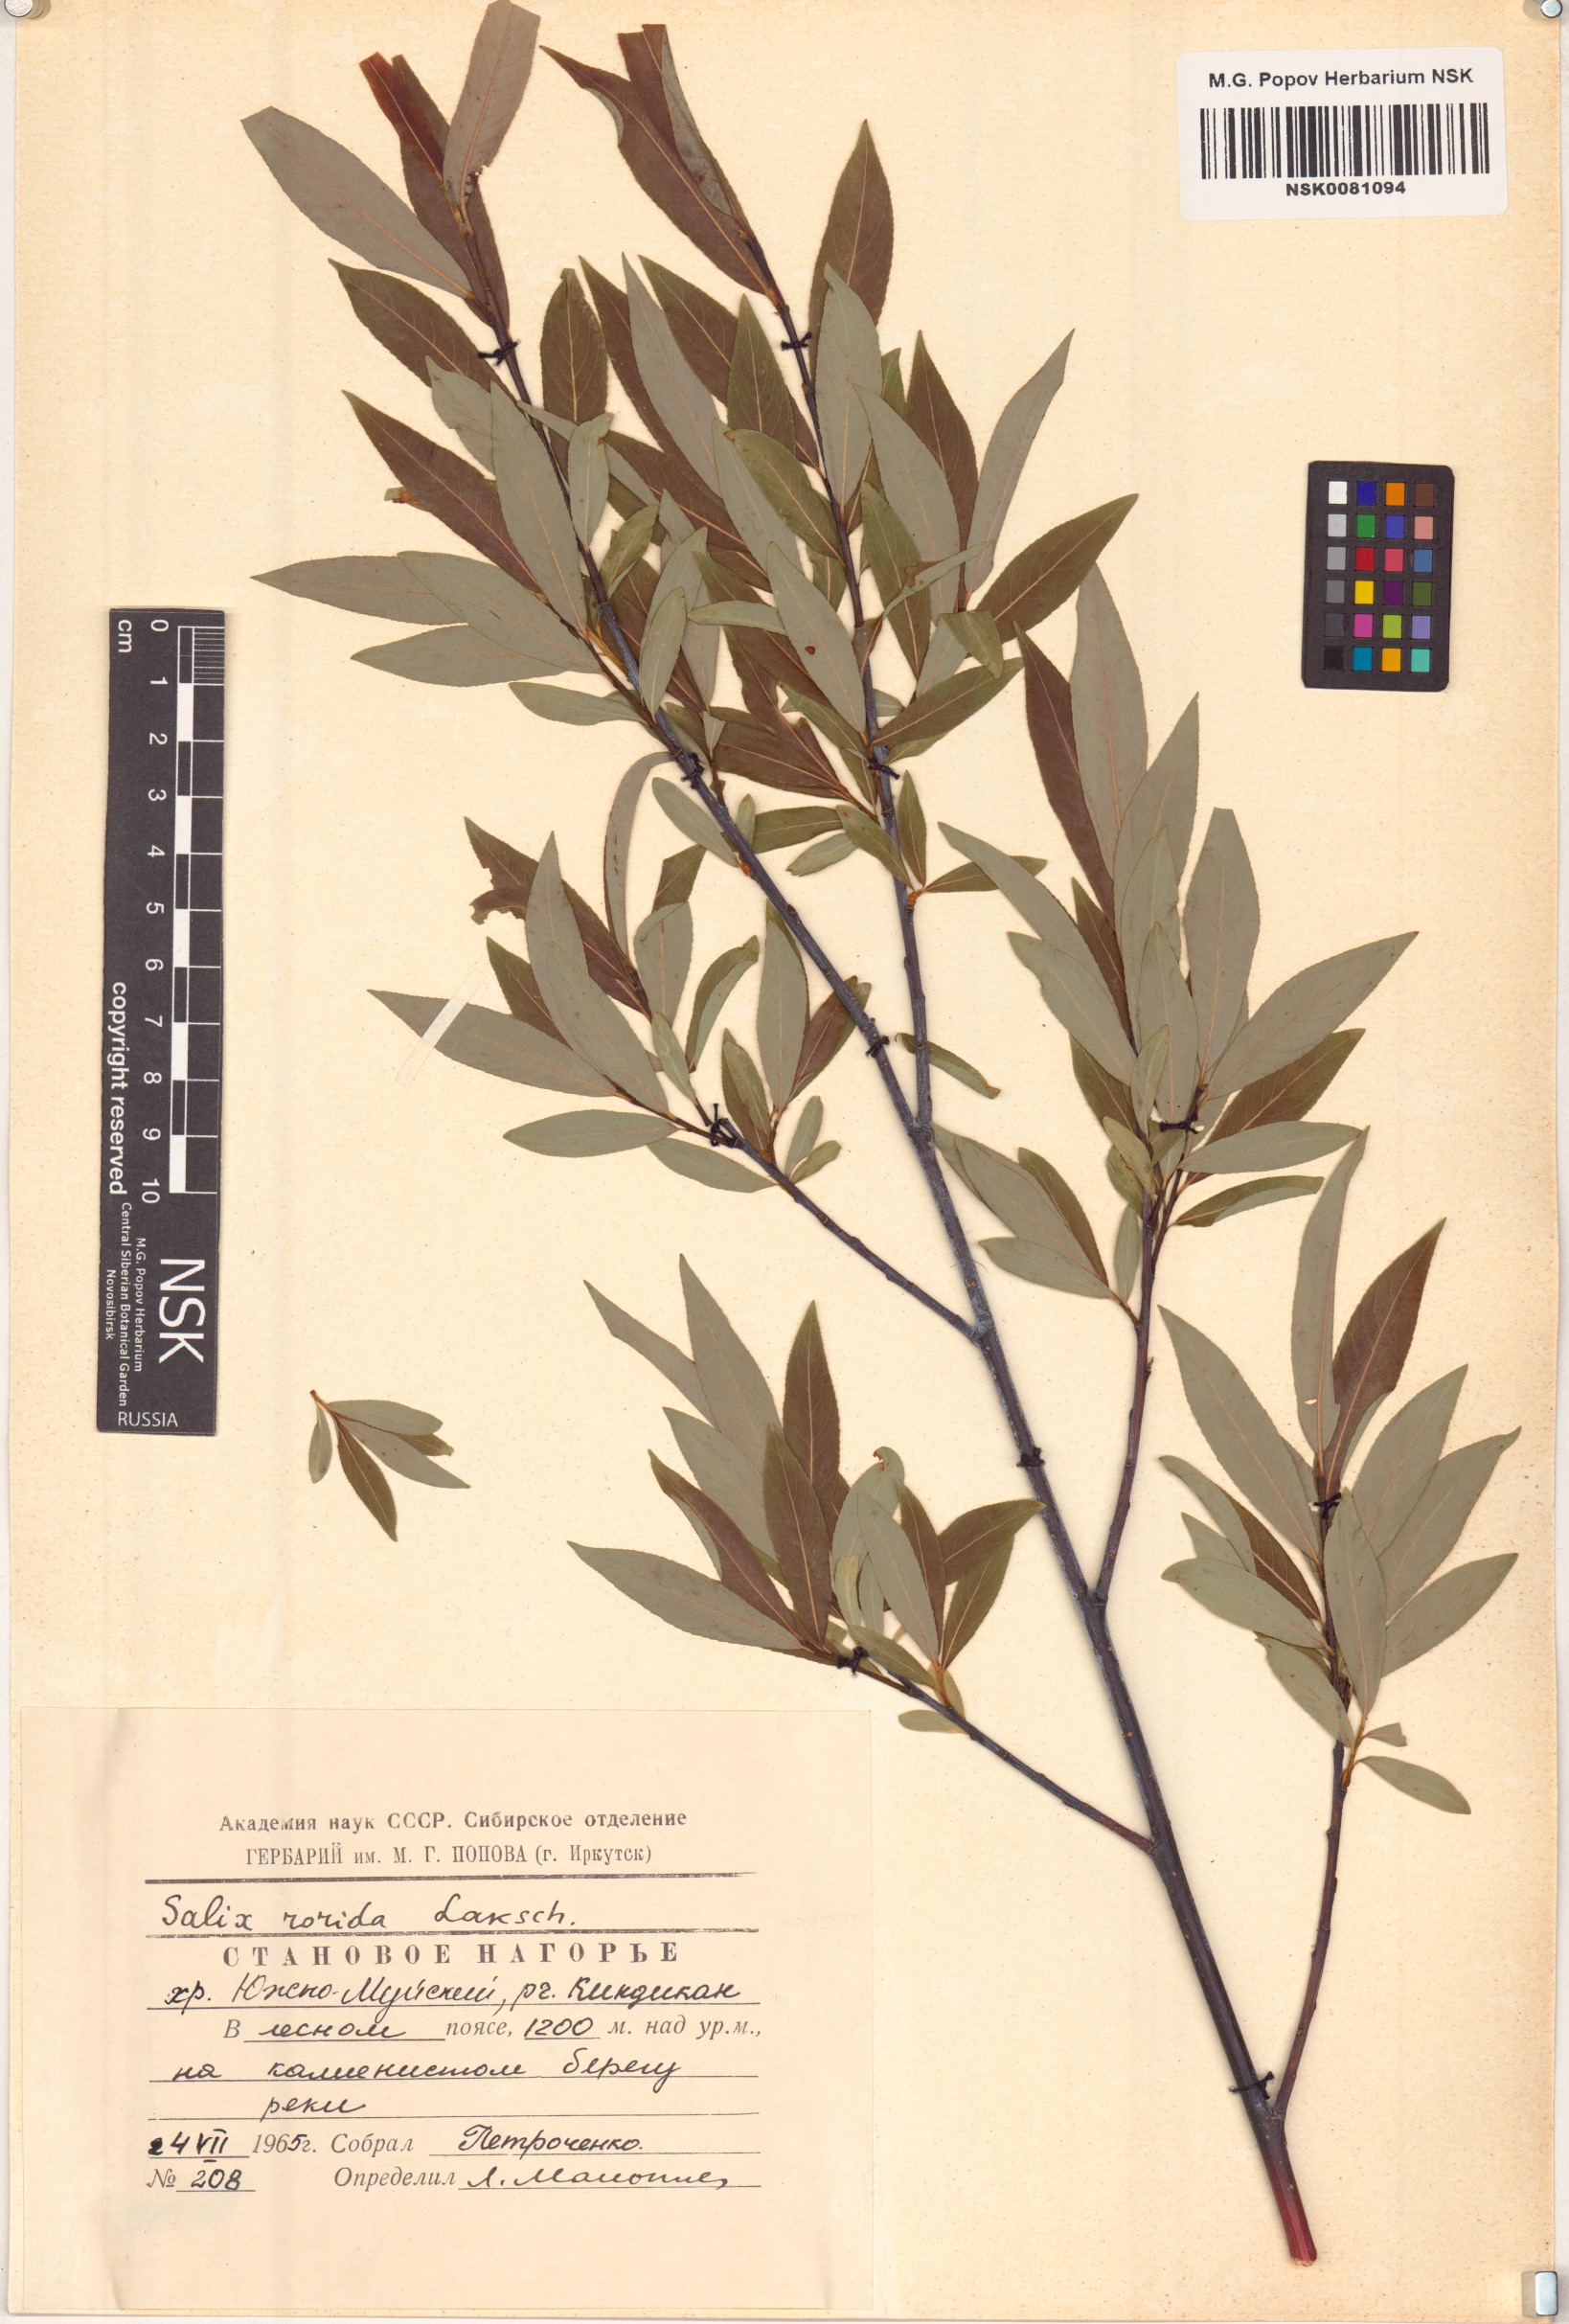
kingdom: Plantae
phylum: Tracheophyta
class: Magnoliopsida
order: Malpighiales
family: Salicaceae
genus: Salix
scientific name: Salix rorida
